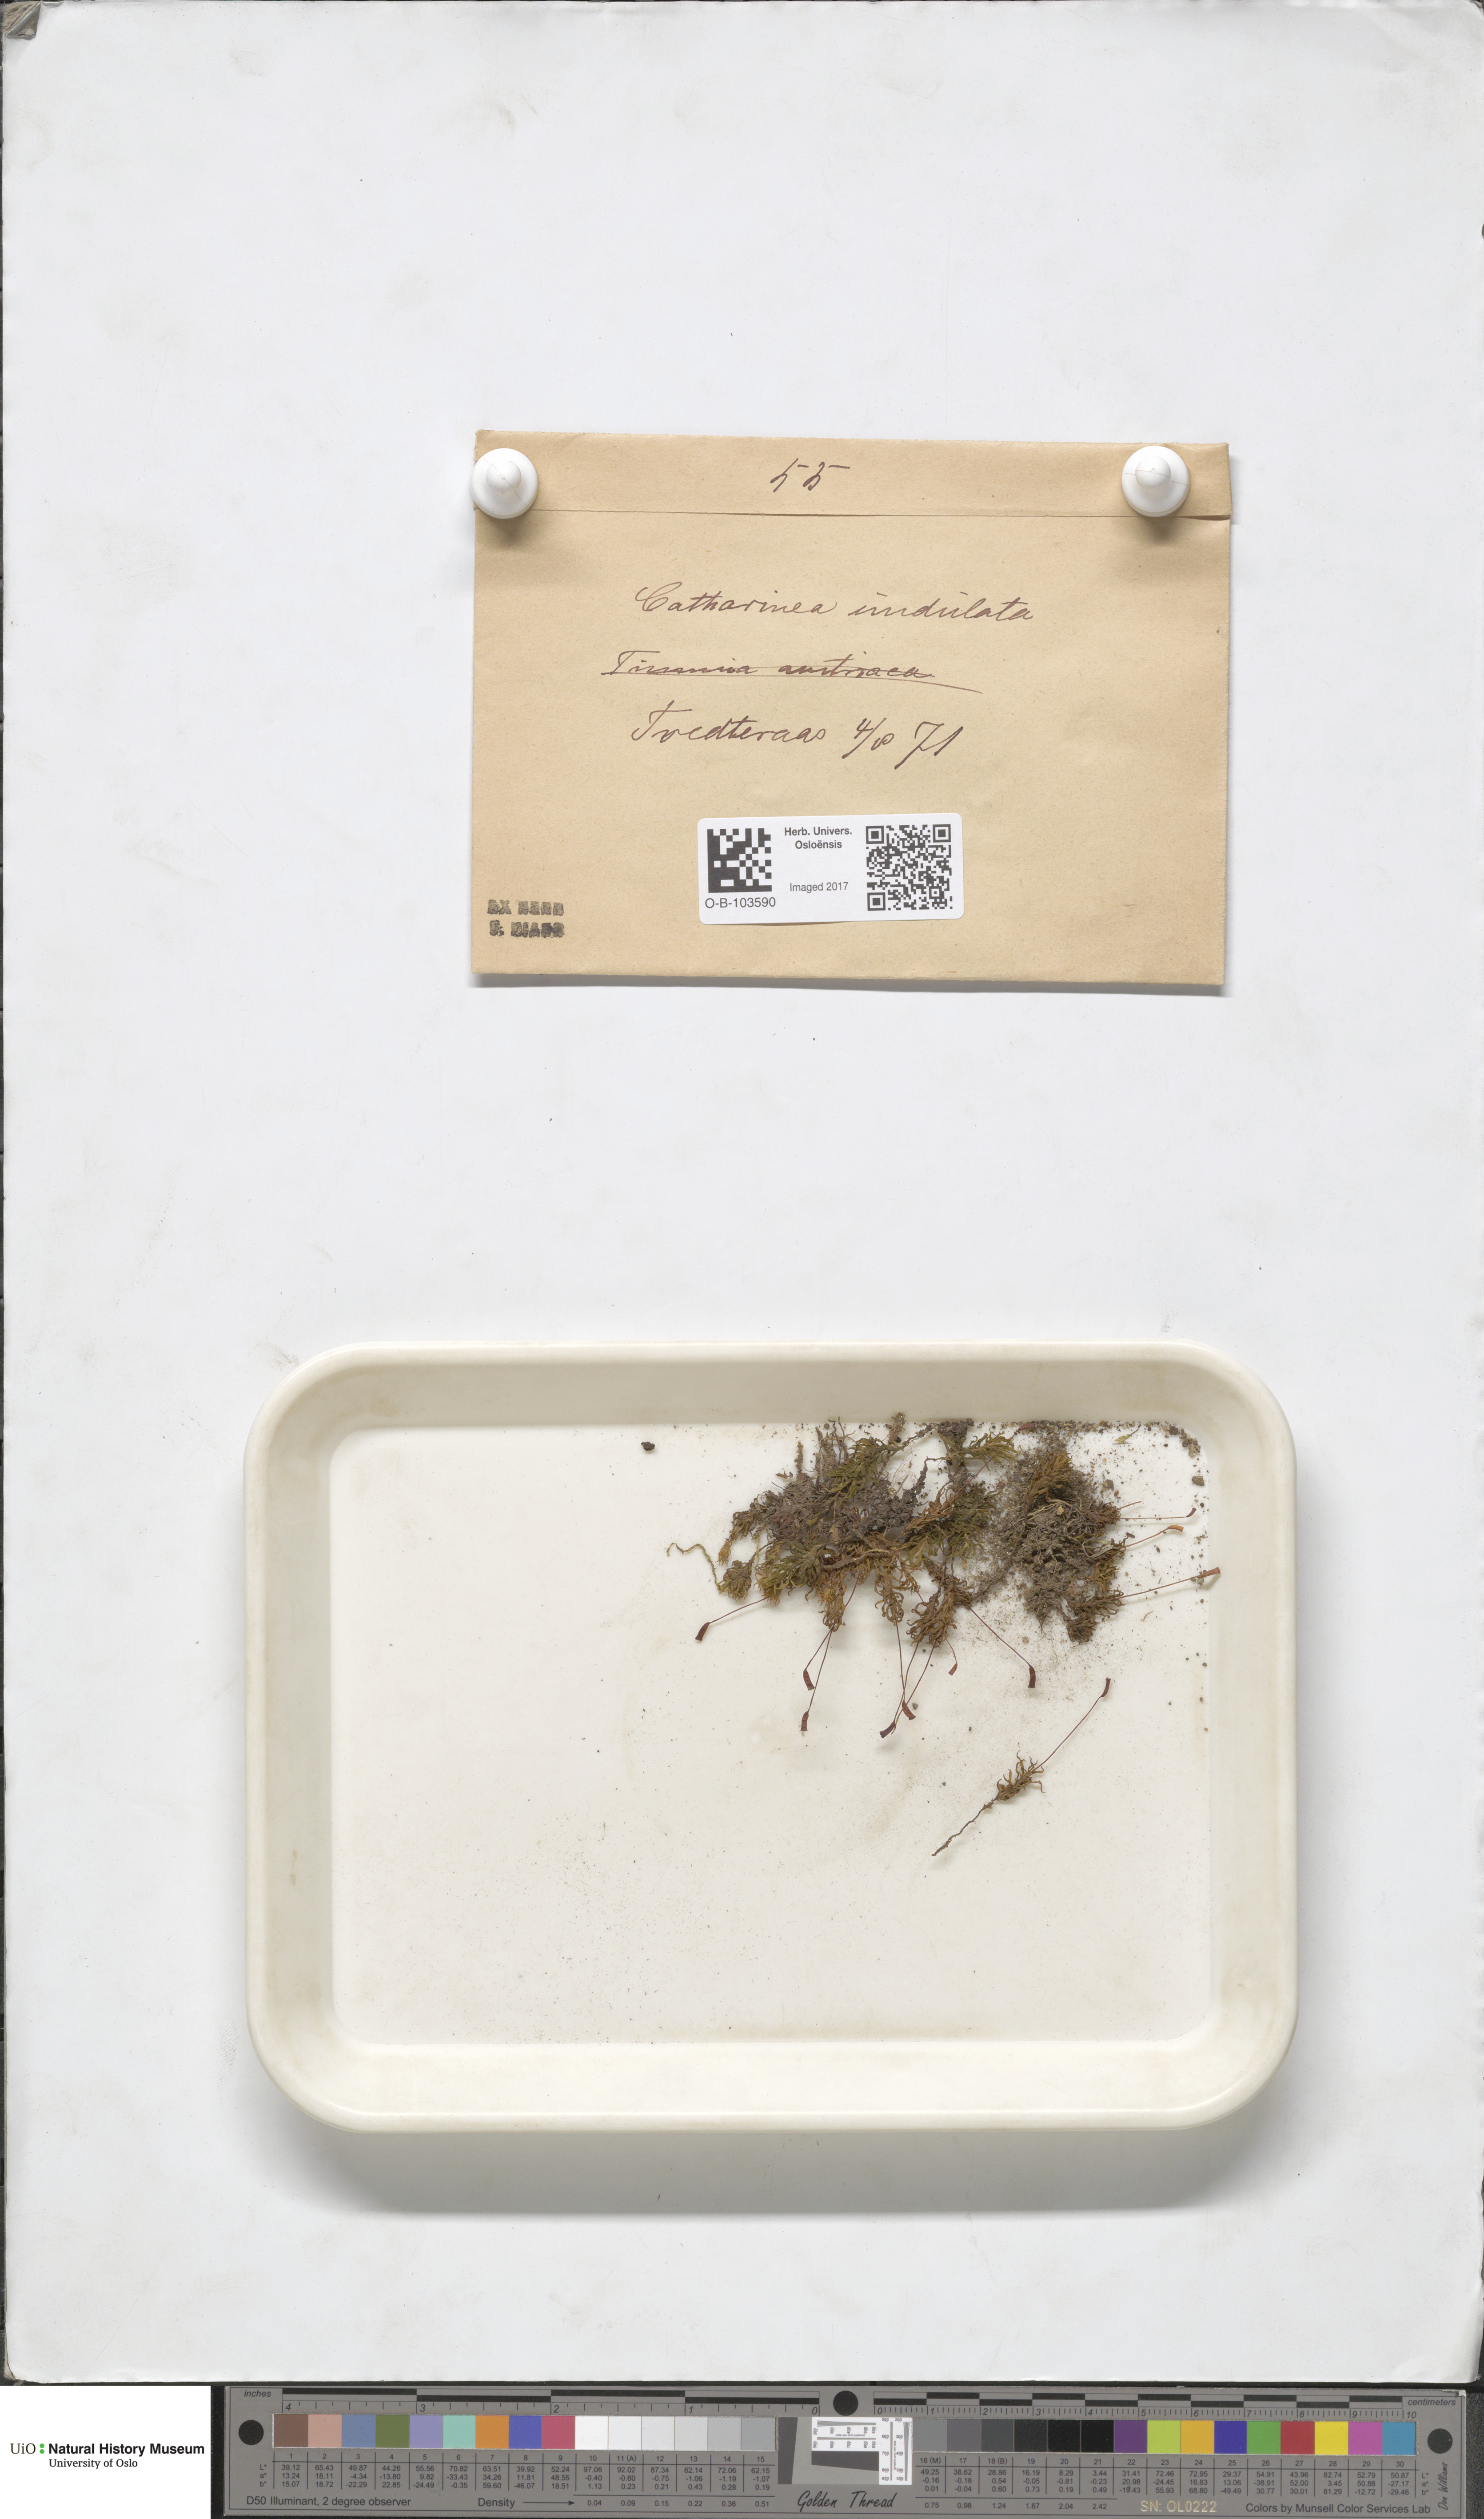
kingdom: Plantae
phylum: Bryophyta
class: Polytrichopsida
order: Polytrichales
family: Polytrichaceae
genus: Atrichum
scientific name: Atrichum undulatum
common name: Common smoothcap
